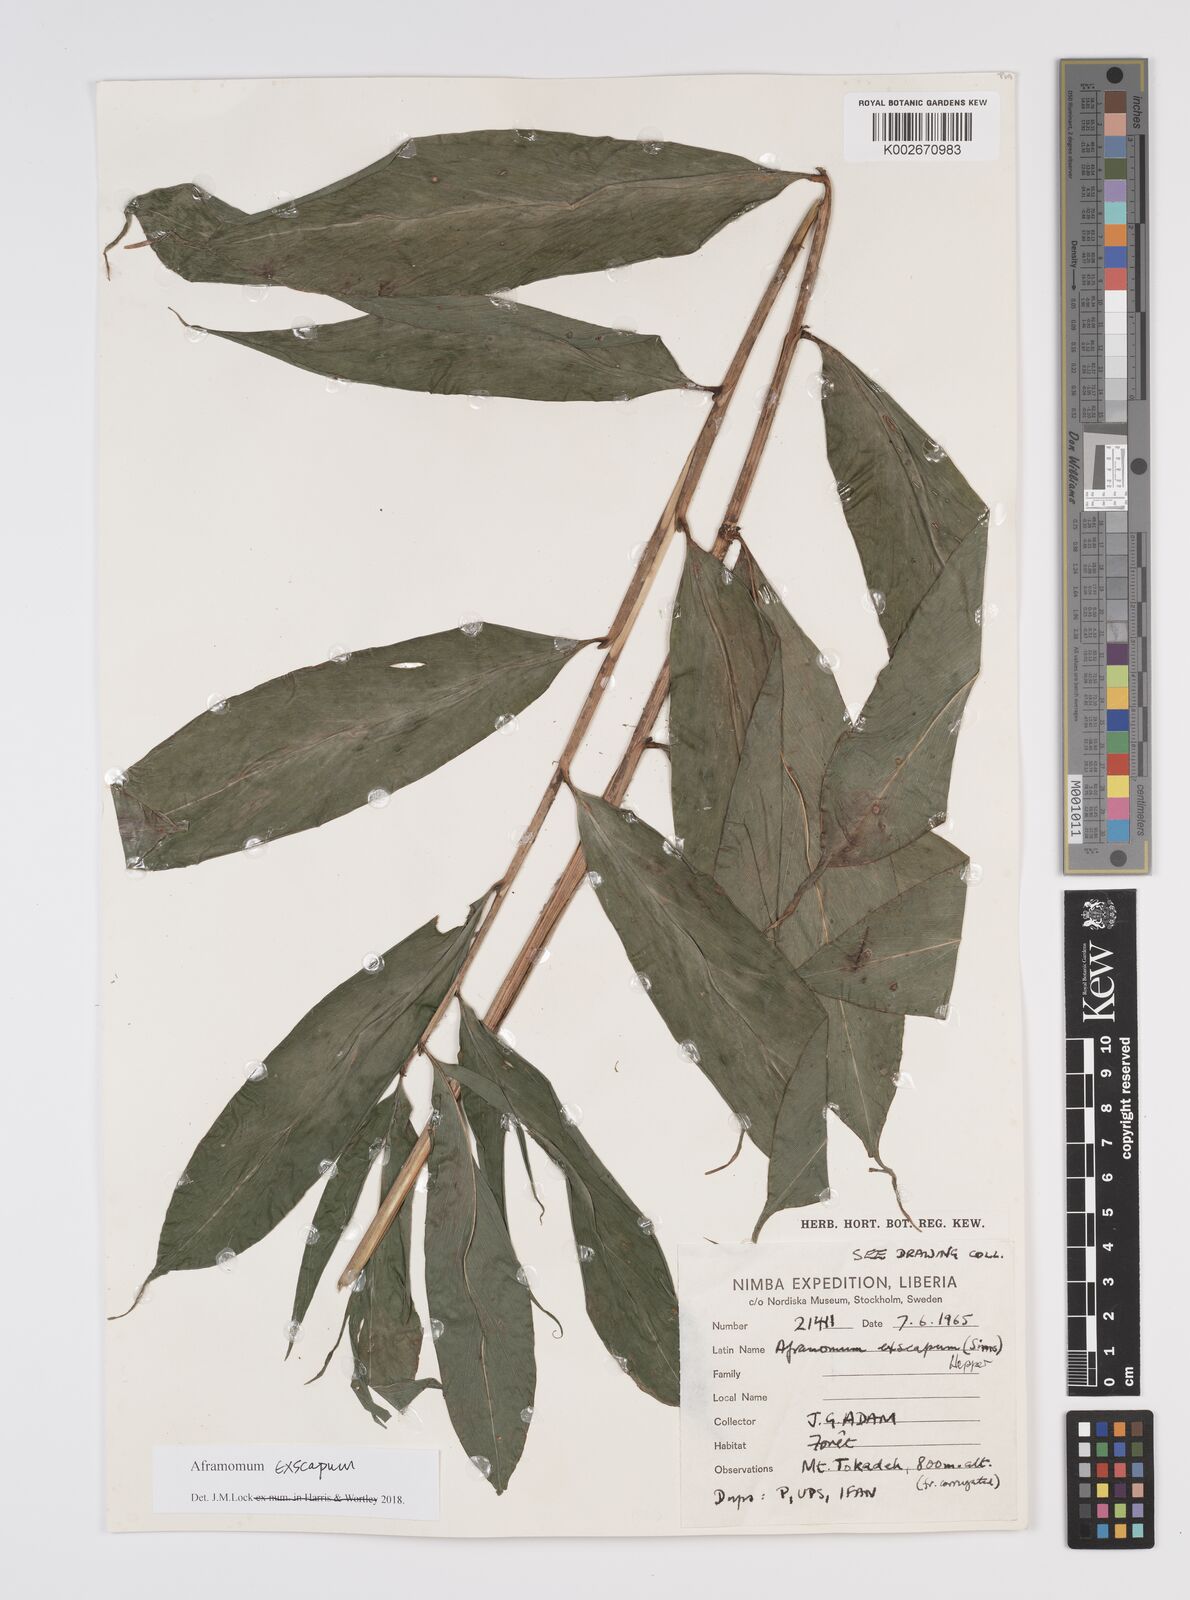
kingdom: Plantae
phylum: Tracheophyta
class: Liliopsida
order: Zingiberales
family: Zingiberaceae
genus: Aframomum
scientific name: Aframomum exscapum
